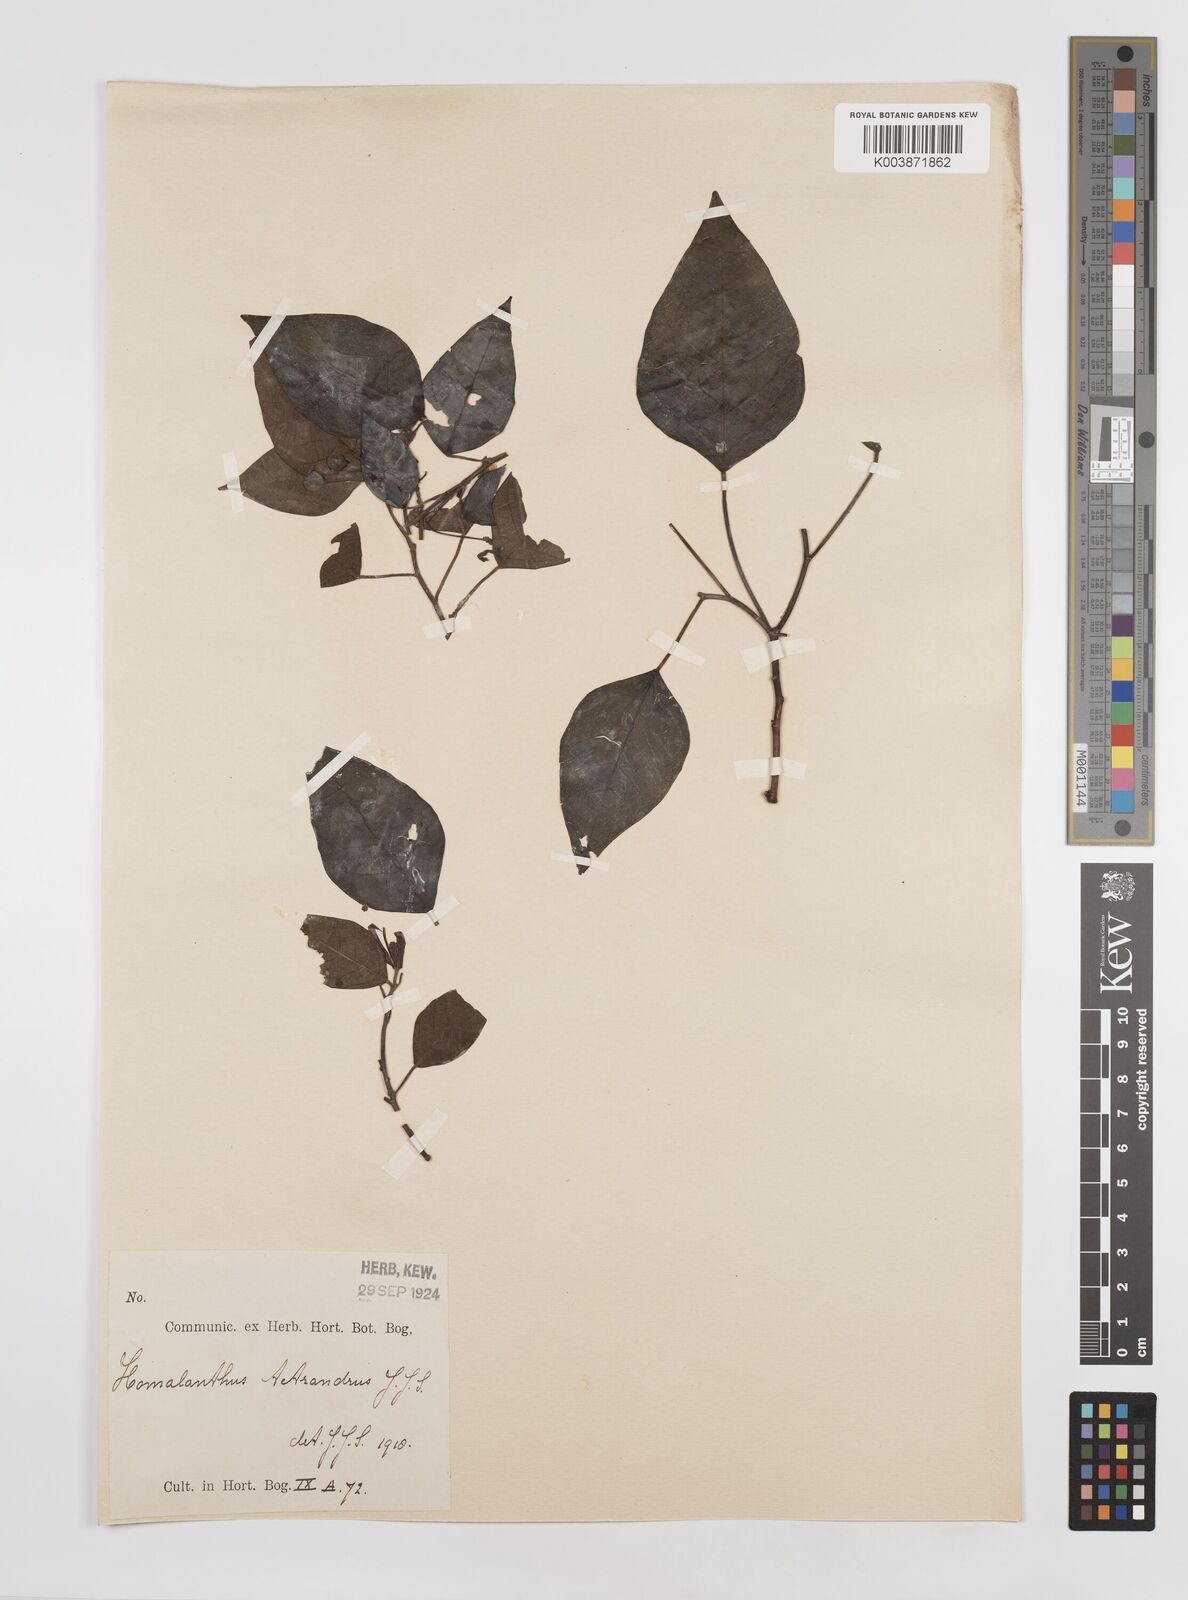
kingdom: Plantae
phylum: Tracheophyta
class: Magnoliopsida
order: Malpighiales
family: Euphorbiaceae
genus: Homalanthus
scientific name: Homalanthus novoguineensis
